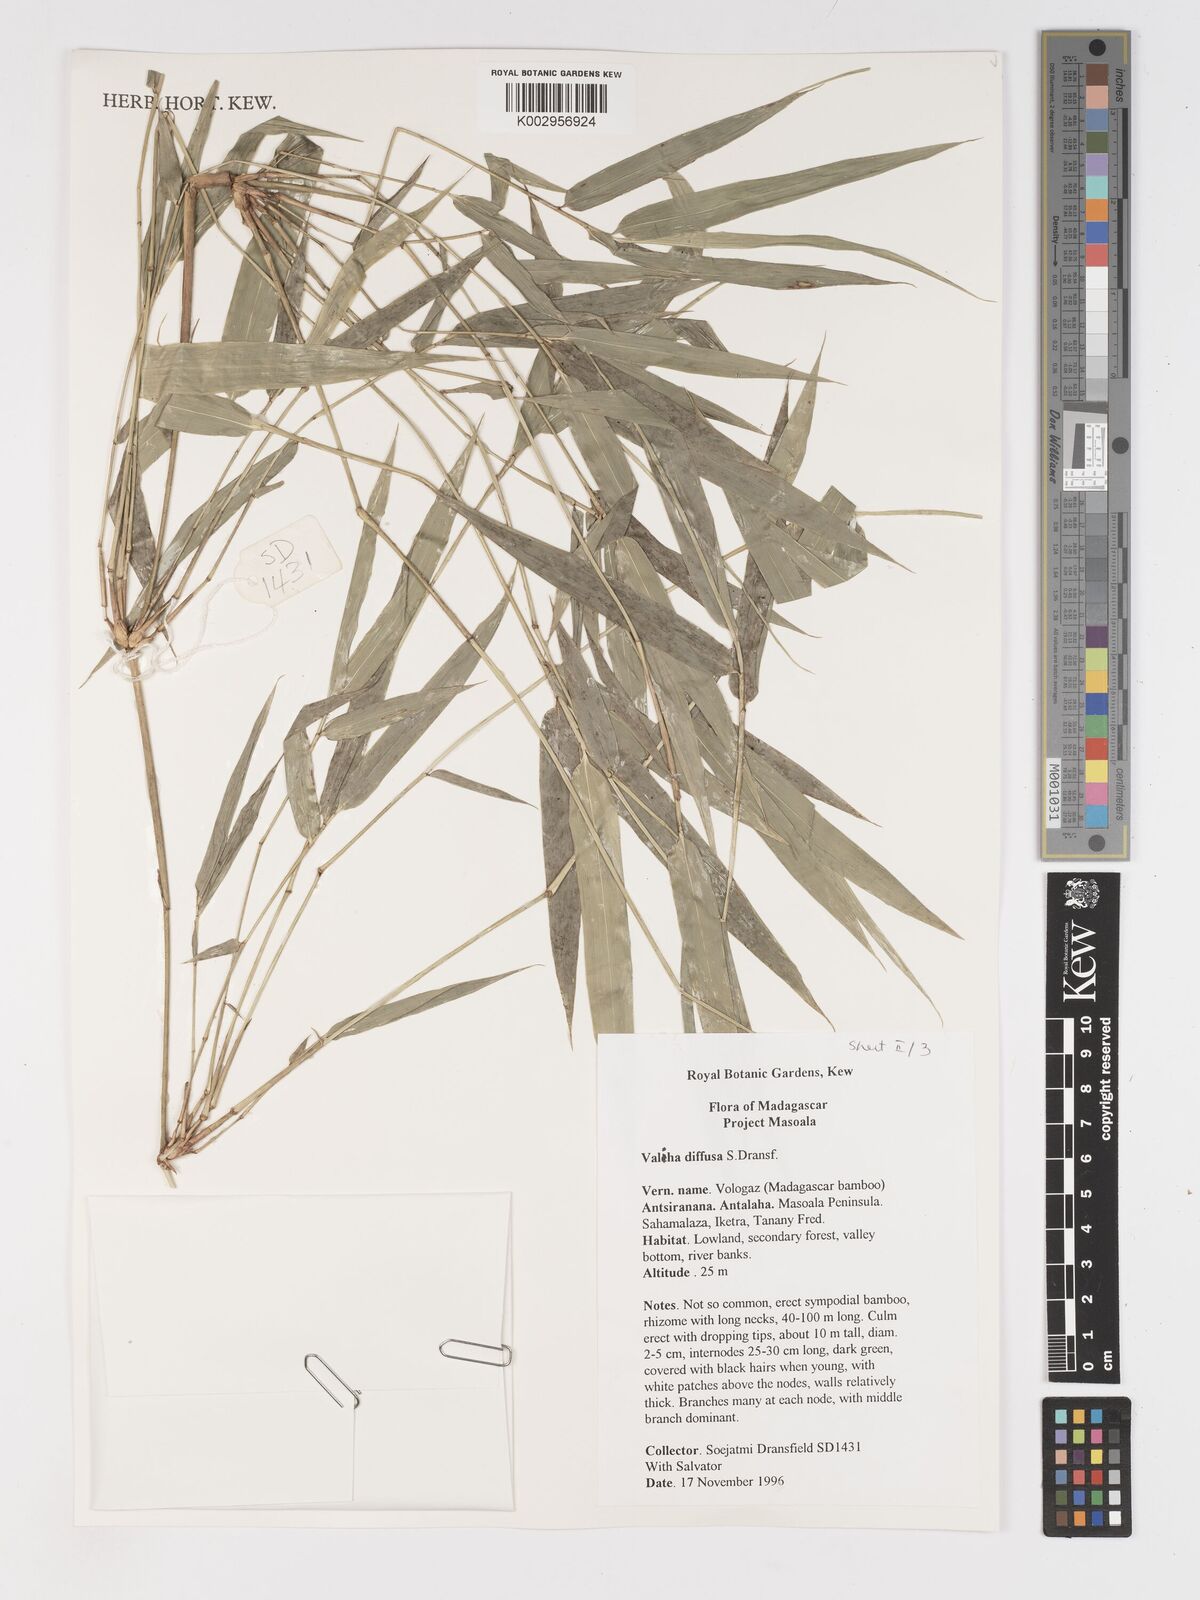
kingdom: Plantae
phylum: Tracheophyta
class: Liliopsida
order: Poales
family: Poaceae
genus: Valiha
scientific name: Valiha
